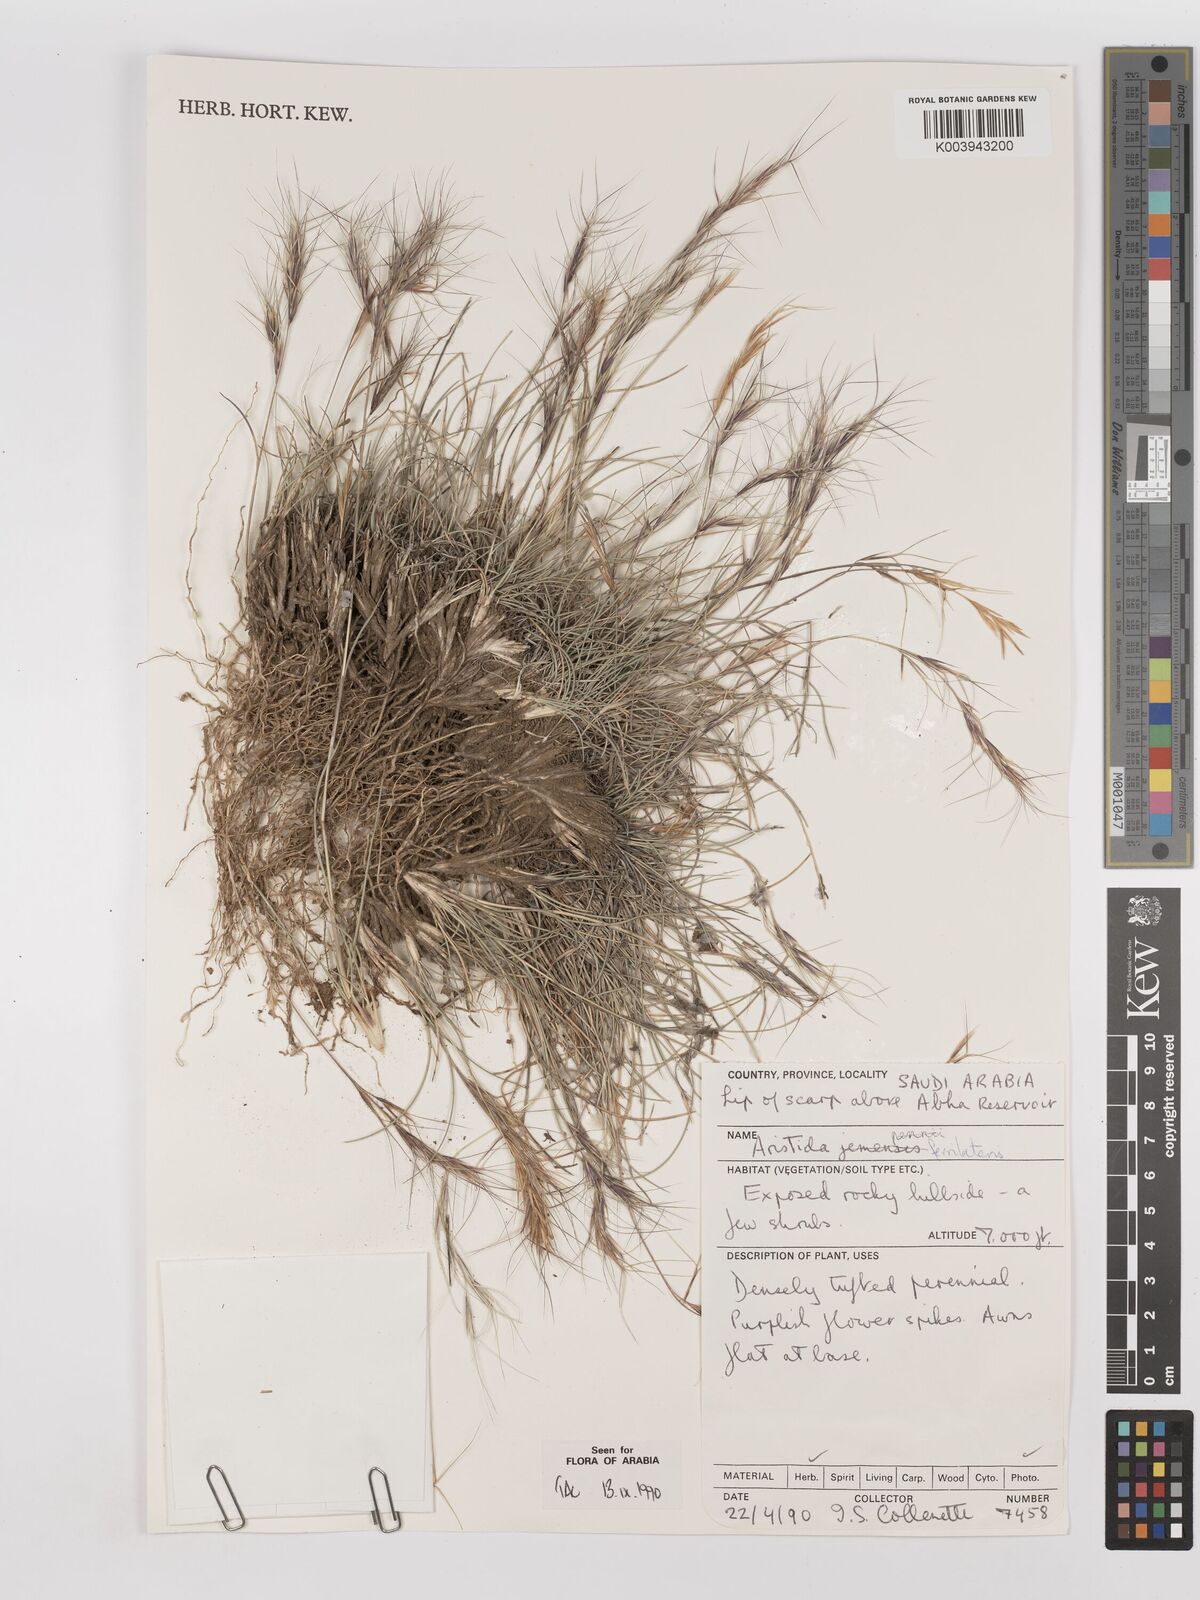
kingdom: Plantae
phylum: Tracheophyta
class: Liliopsida
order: Poales
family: Poaceae
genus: Aristida
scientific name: Aristida tricornis
